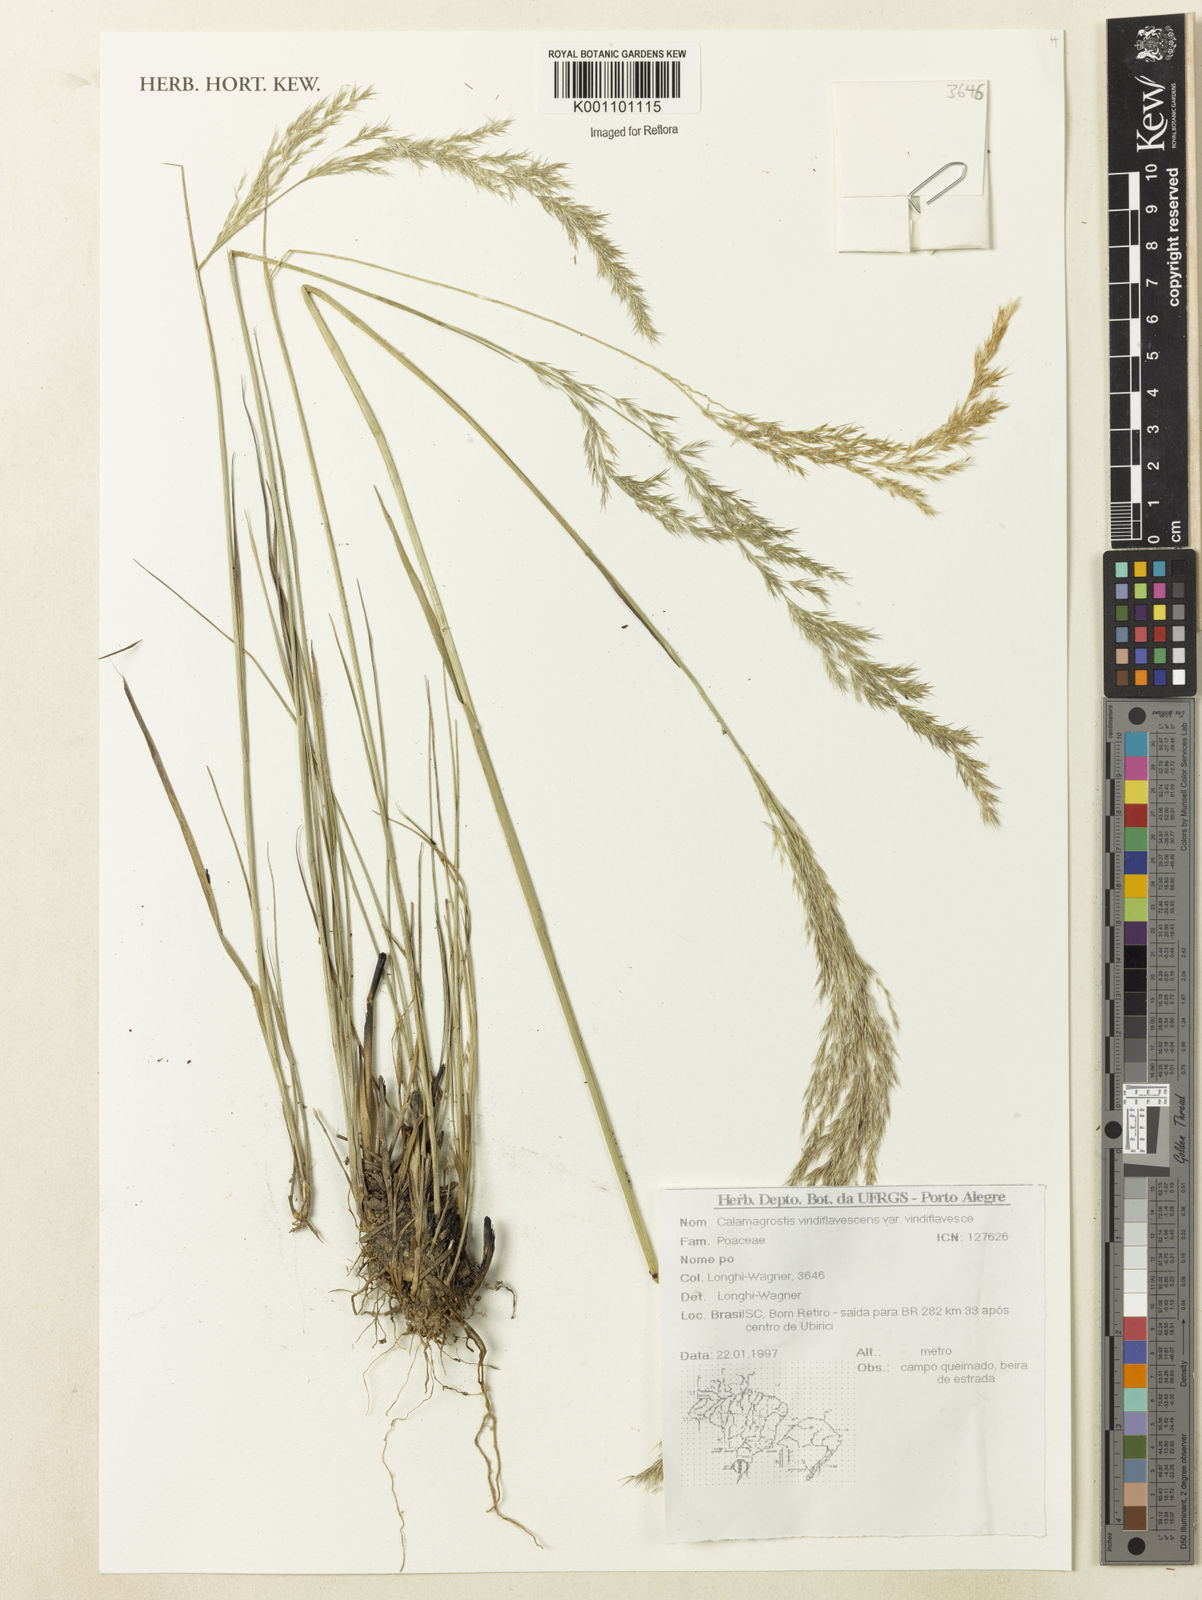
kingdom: Plantae
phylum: Tracheophyta
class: Liliopsida
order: Poales
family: Poaceae
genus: Cinnagrostis
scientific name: Cinnagrostis viridiflavescens
